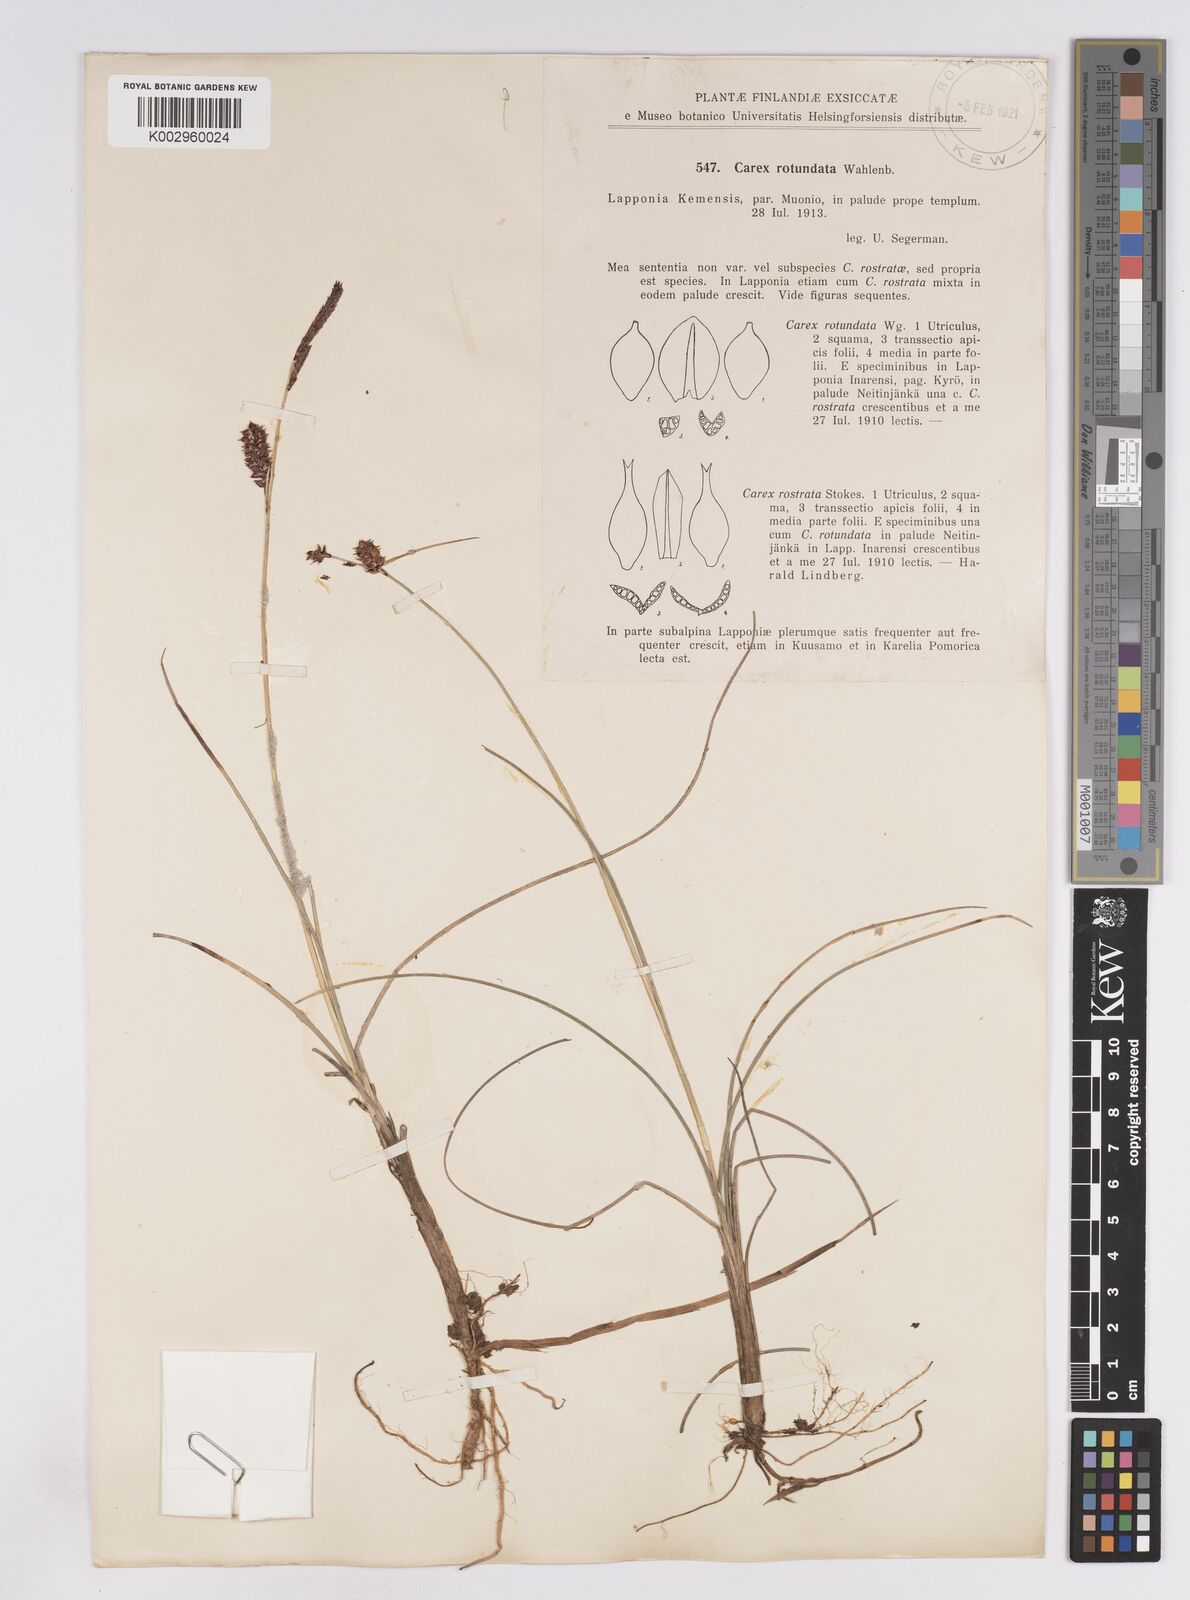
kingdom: Plantae
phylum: Tracheophyta
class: Liliopsida
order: Poales
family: Cyperaceae
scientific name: Cyperaceae
